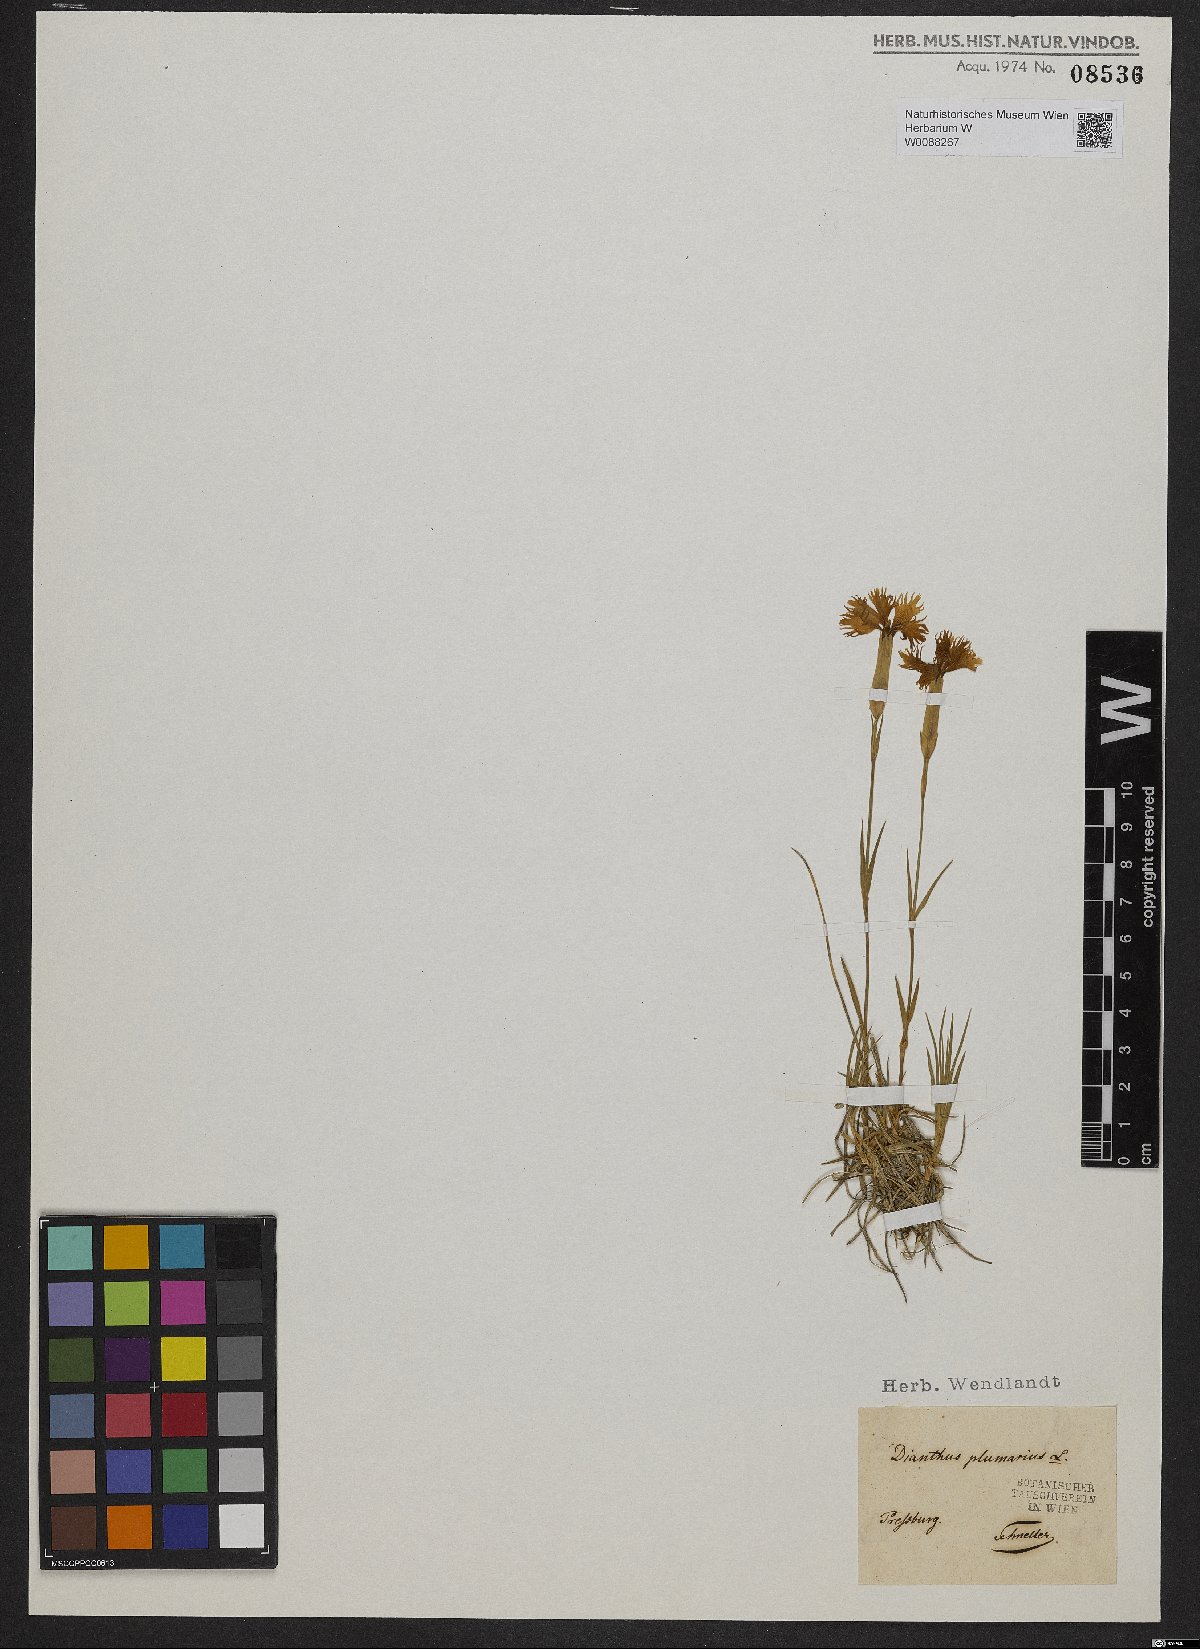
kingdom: Plantae
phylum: Tracheophyta
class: Magnoliopsida
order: Caryophyllales
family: Caryophyllaceae
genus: Dianthus
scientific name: Dianthus plumarius
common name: Pink
